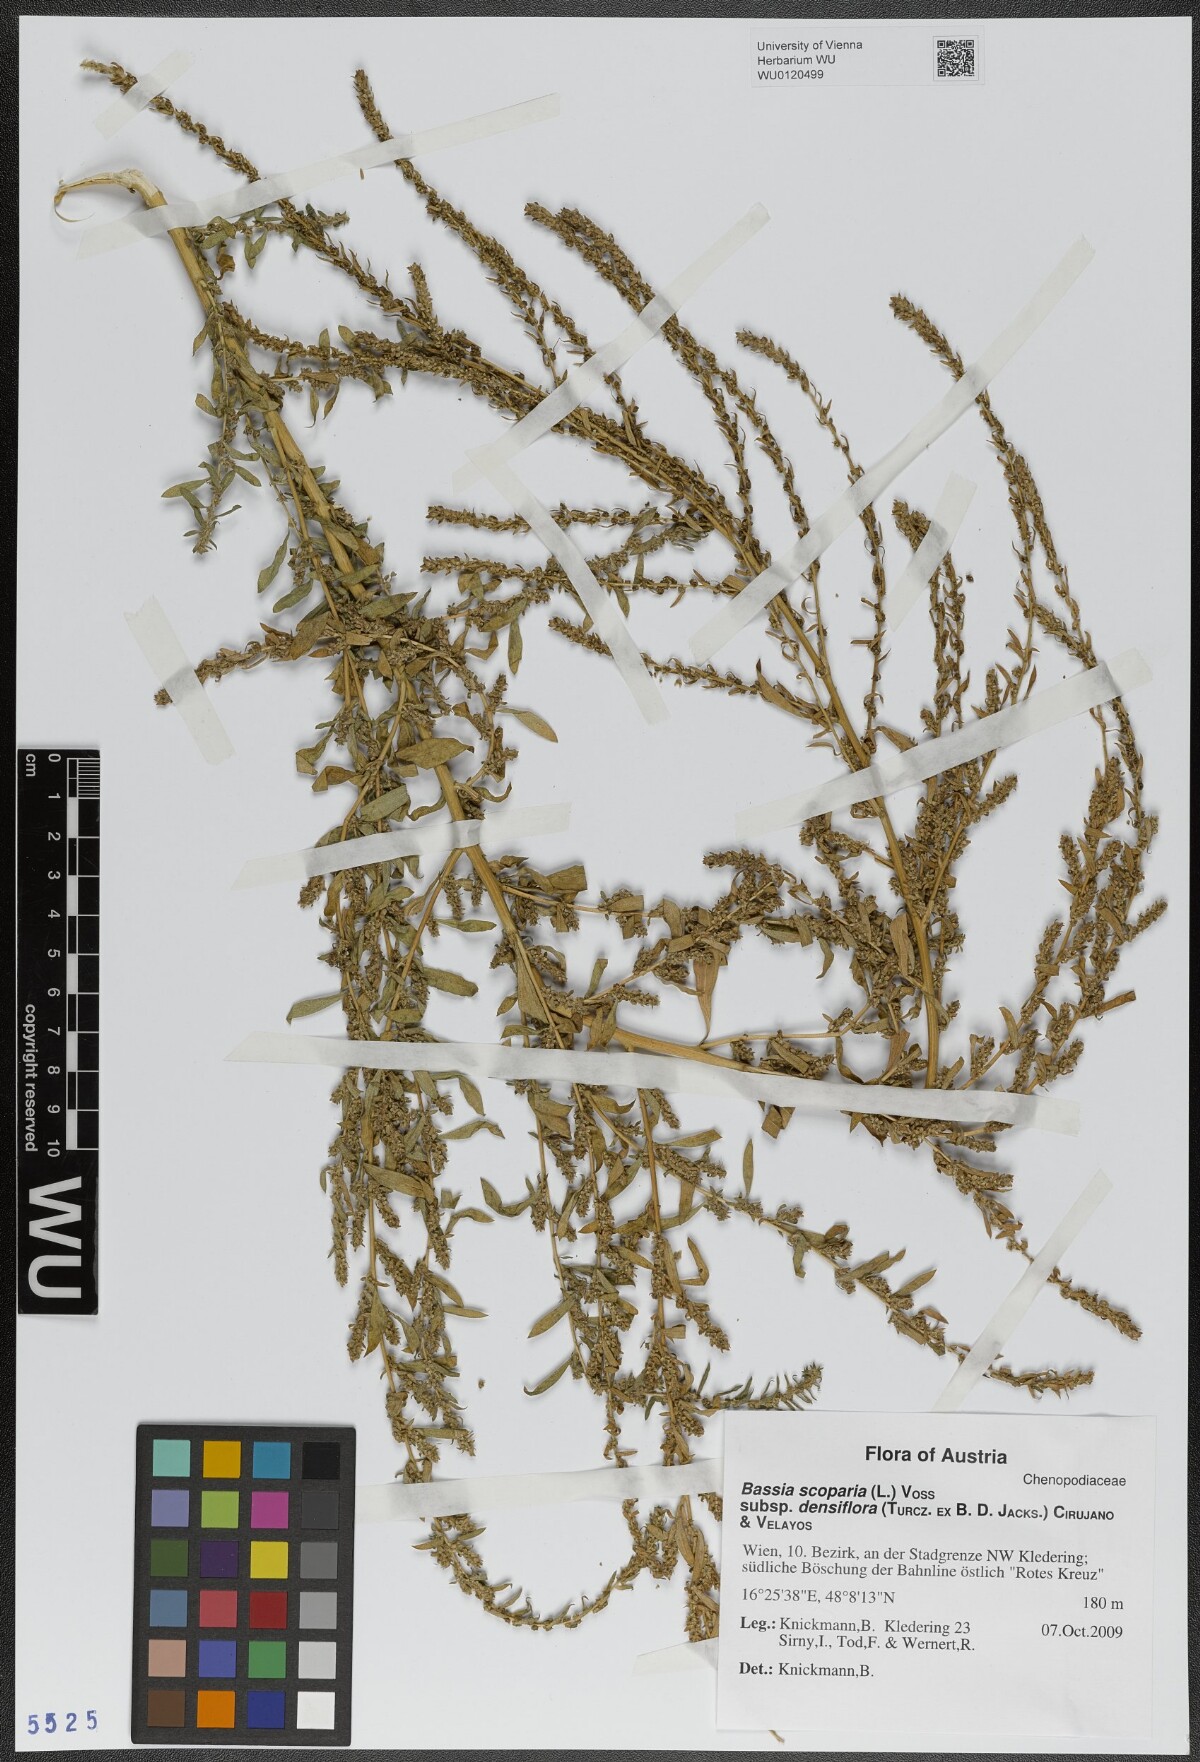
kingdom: Plantae
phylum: Tracheophyta
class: Magnoliopsida
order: Caryophyllales
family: Amaranthaceae
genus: Bassia
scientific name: Bassia scoparia
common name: Belvedere
